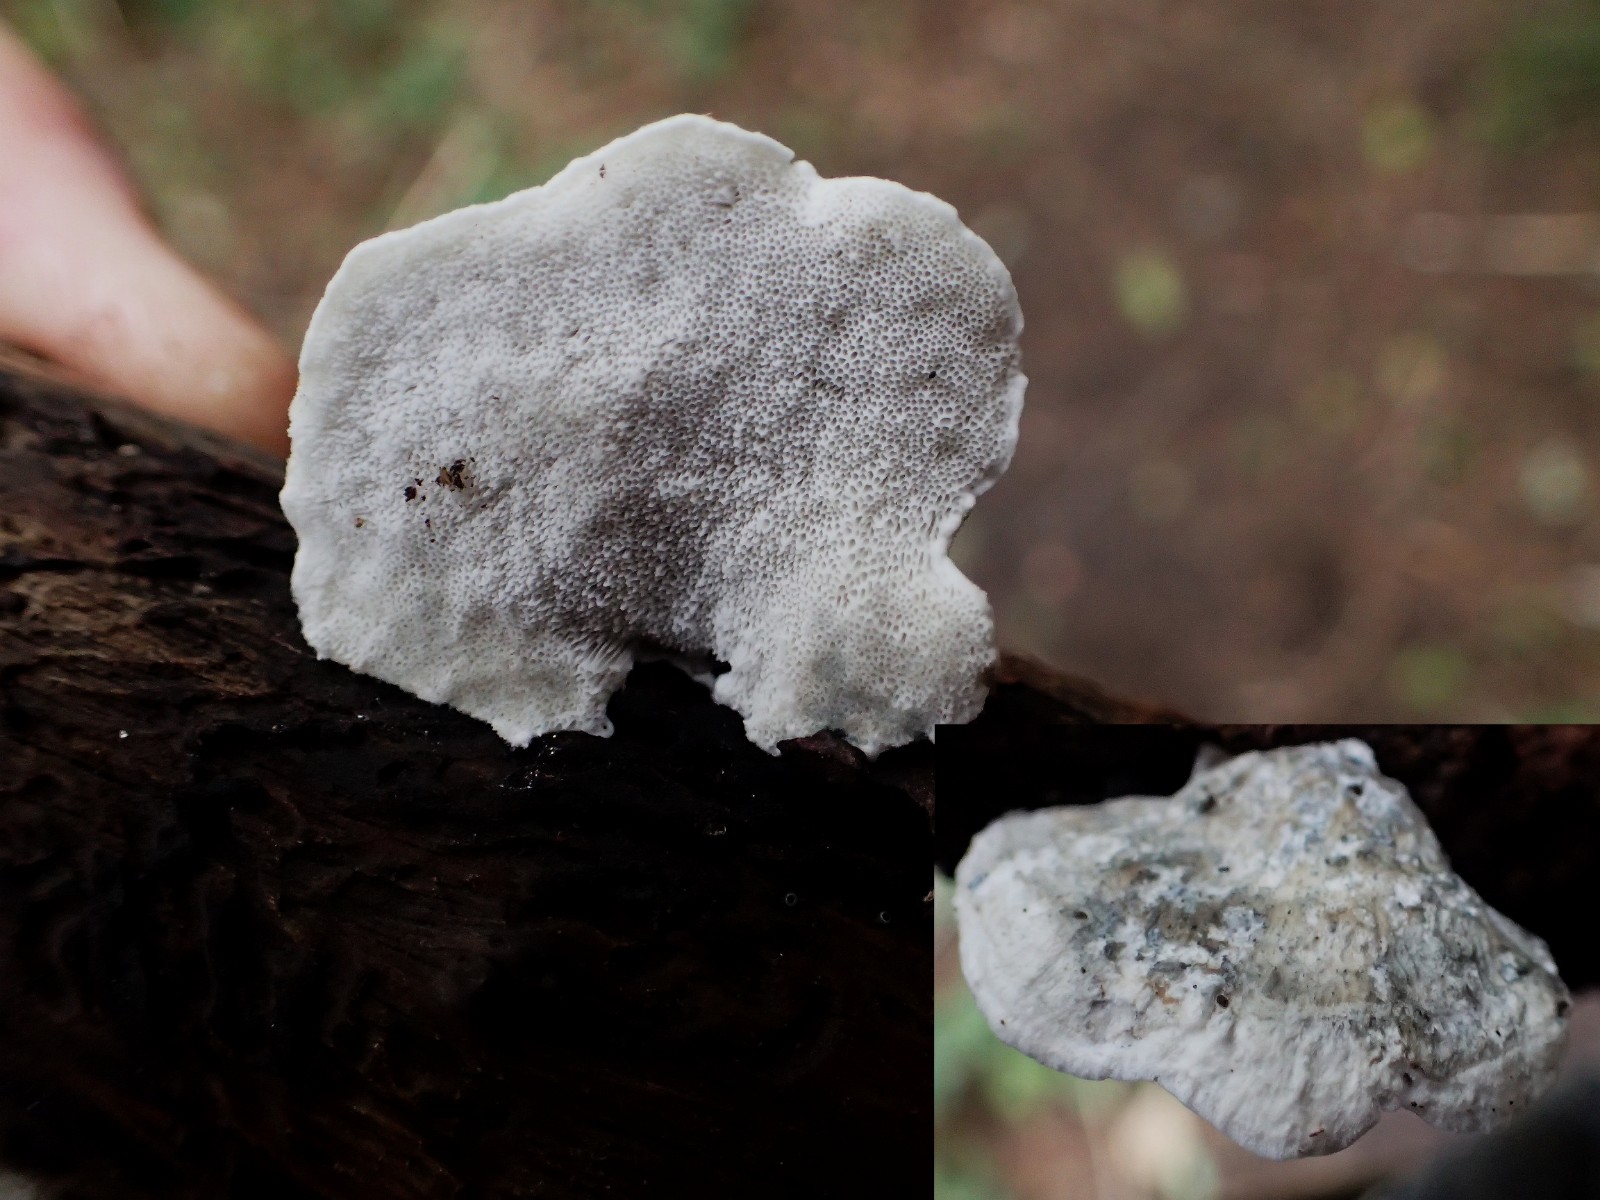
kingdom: Fungi
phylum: Basidiomycota
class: Agaricomycetes
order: Polyporales
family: Polyporaceae
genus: Cyanosporus
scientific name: Cyanosporus alni
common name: blegblå kødporesvamp
